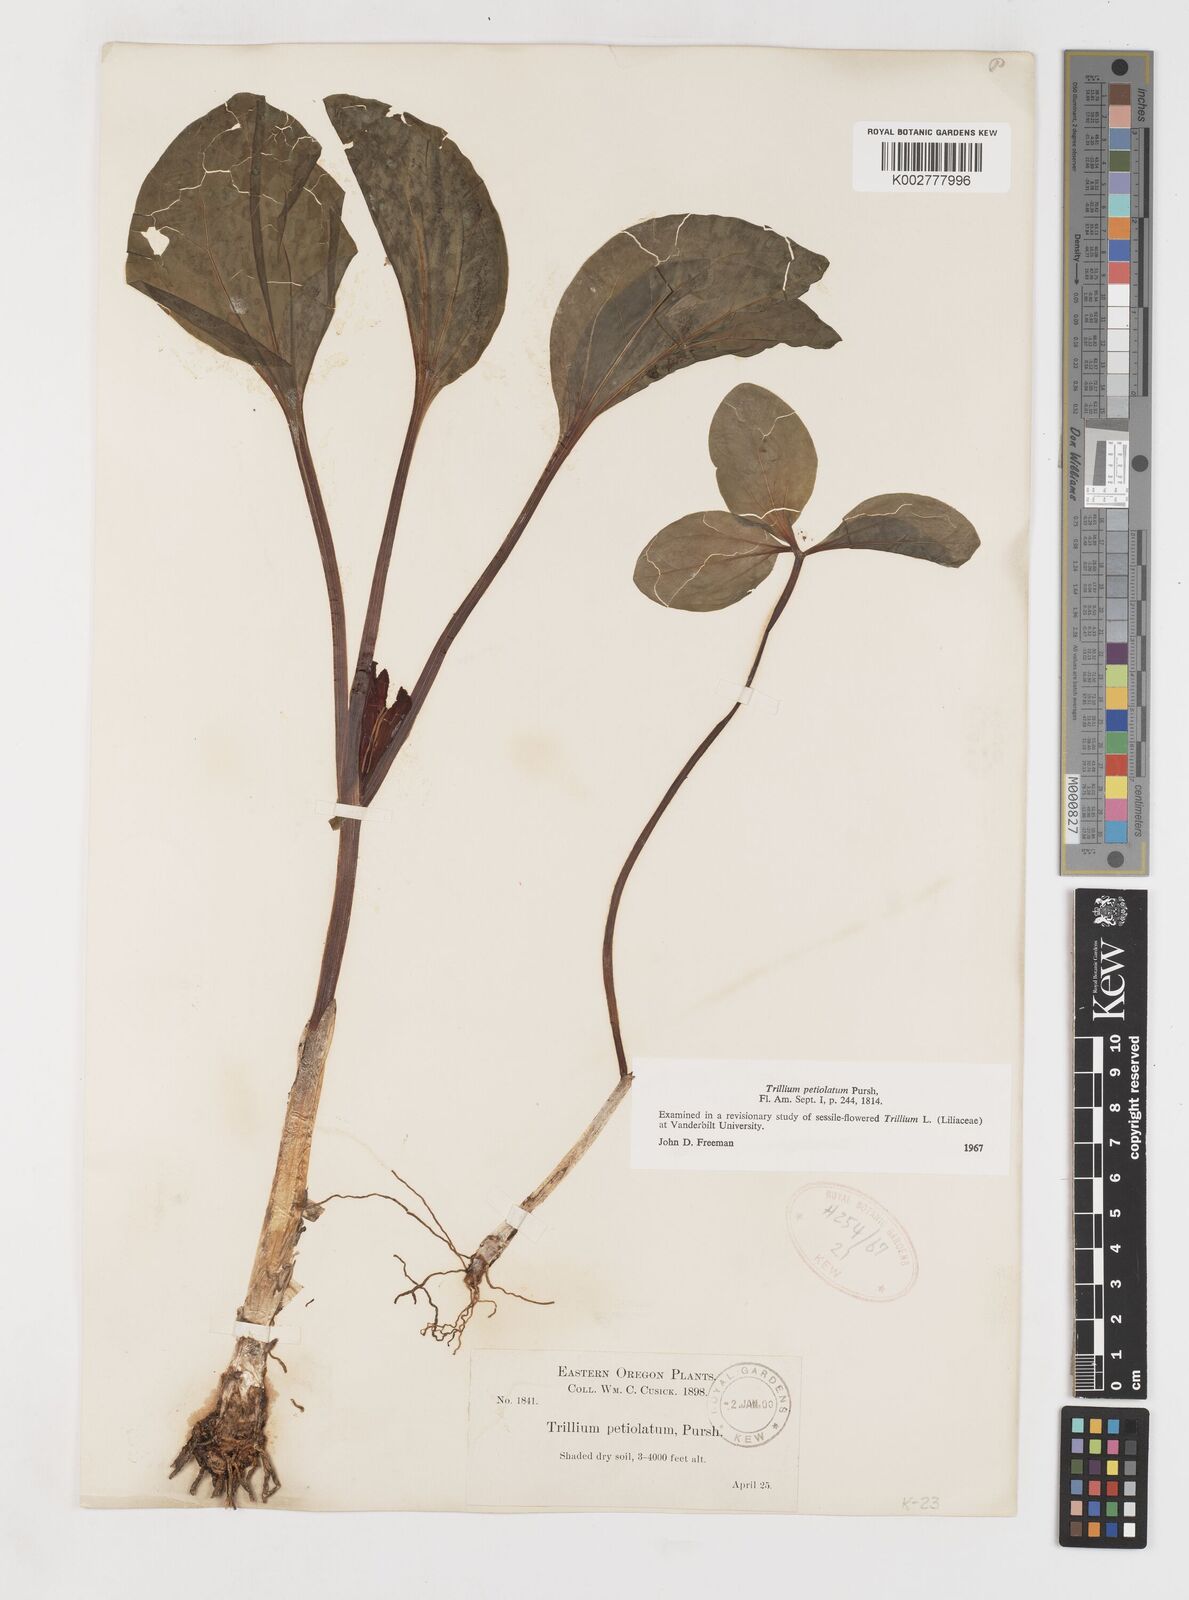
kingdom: Plantae
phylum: Tracheophyta
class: Liliopsida
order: Liliales
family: Melanthiaceae
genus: Trillium
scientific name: Trillium petiolatum
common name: Idaho trillium
